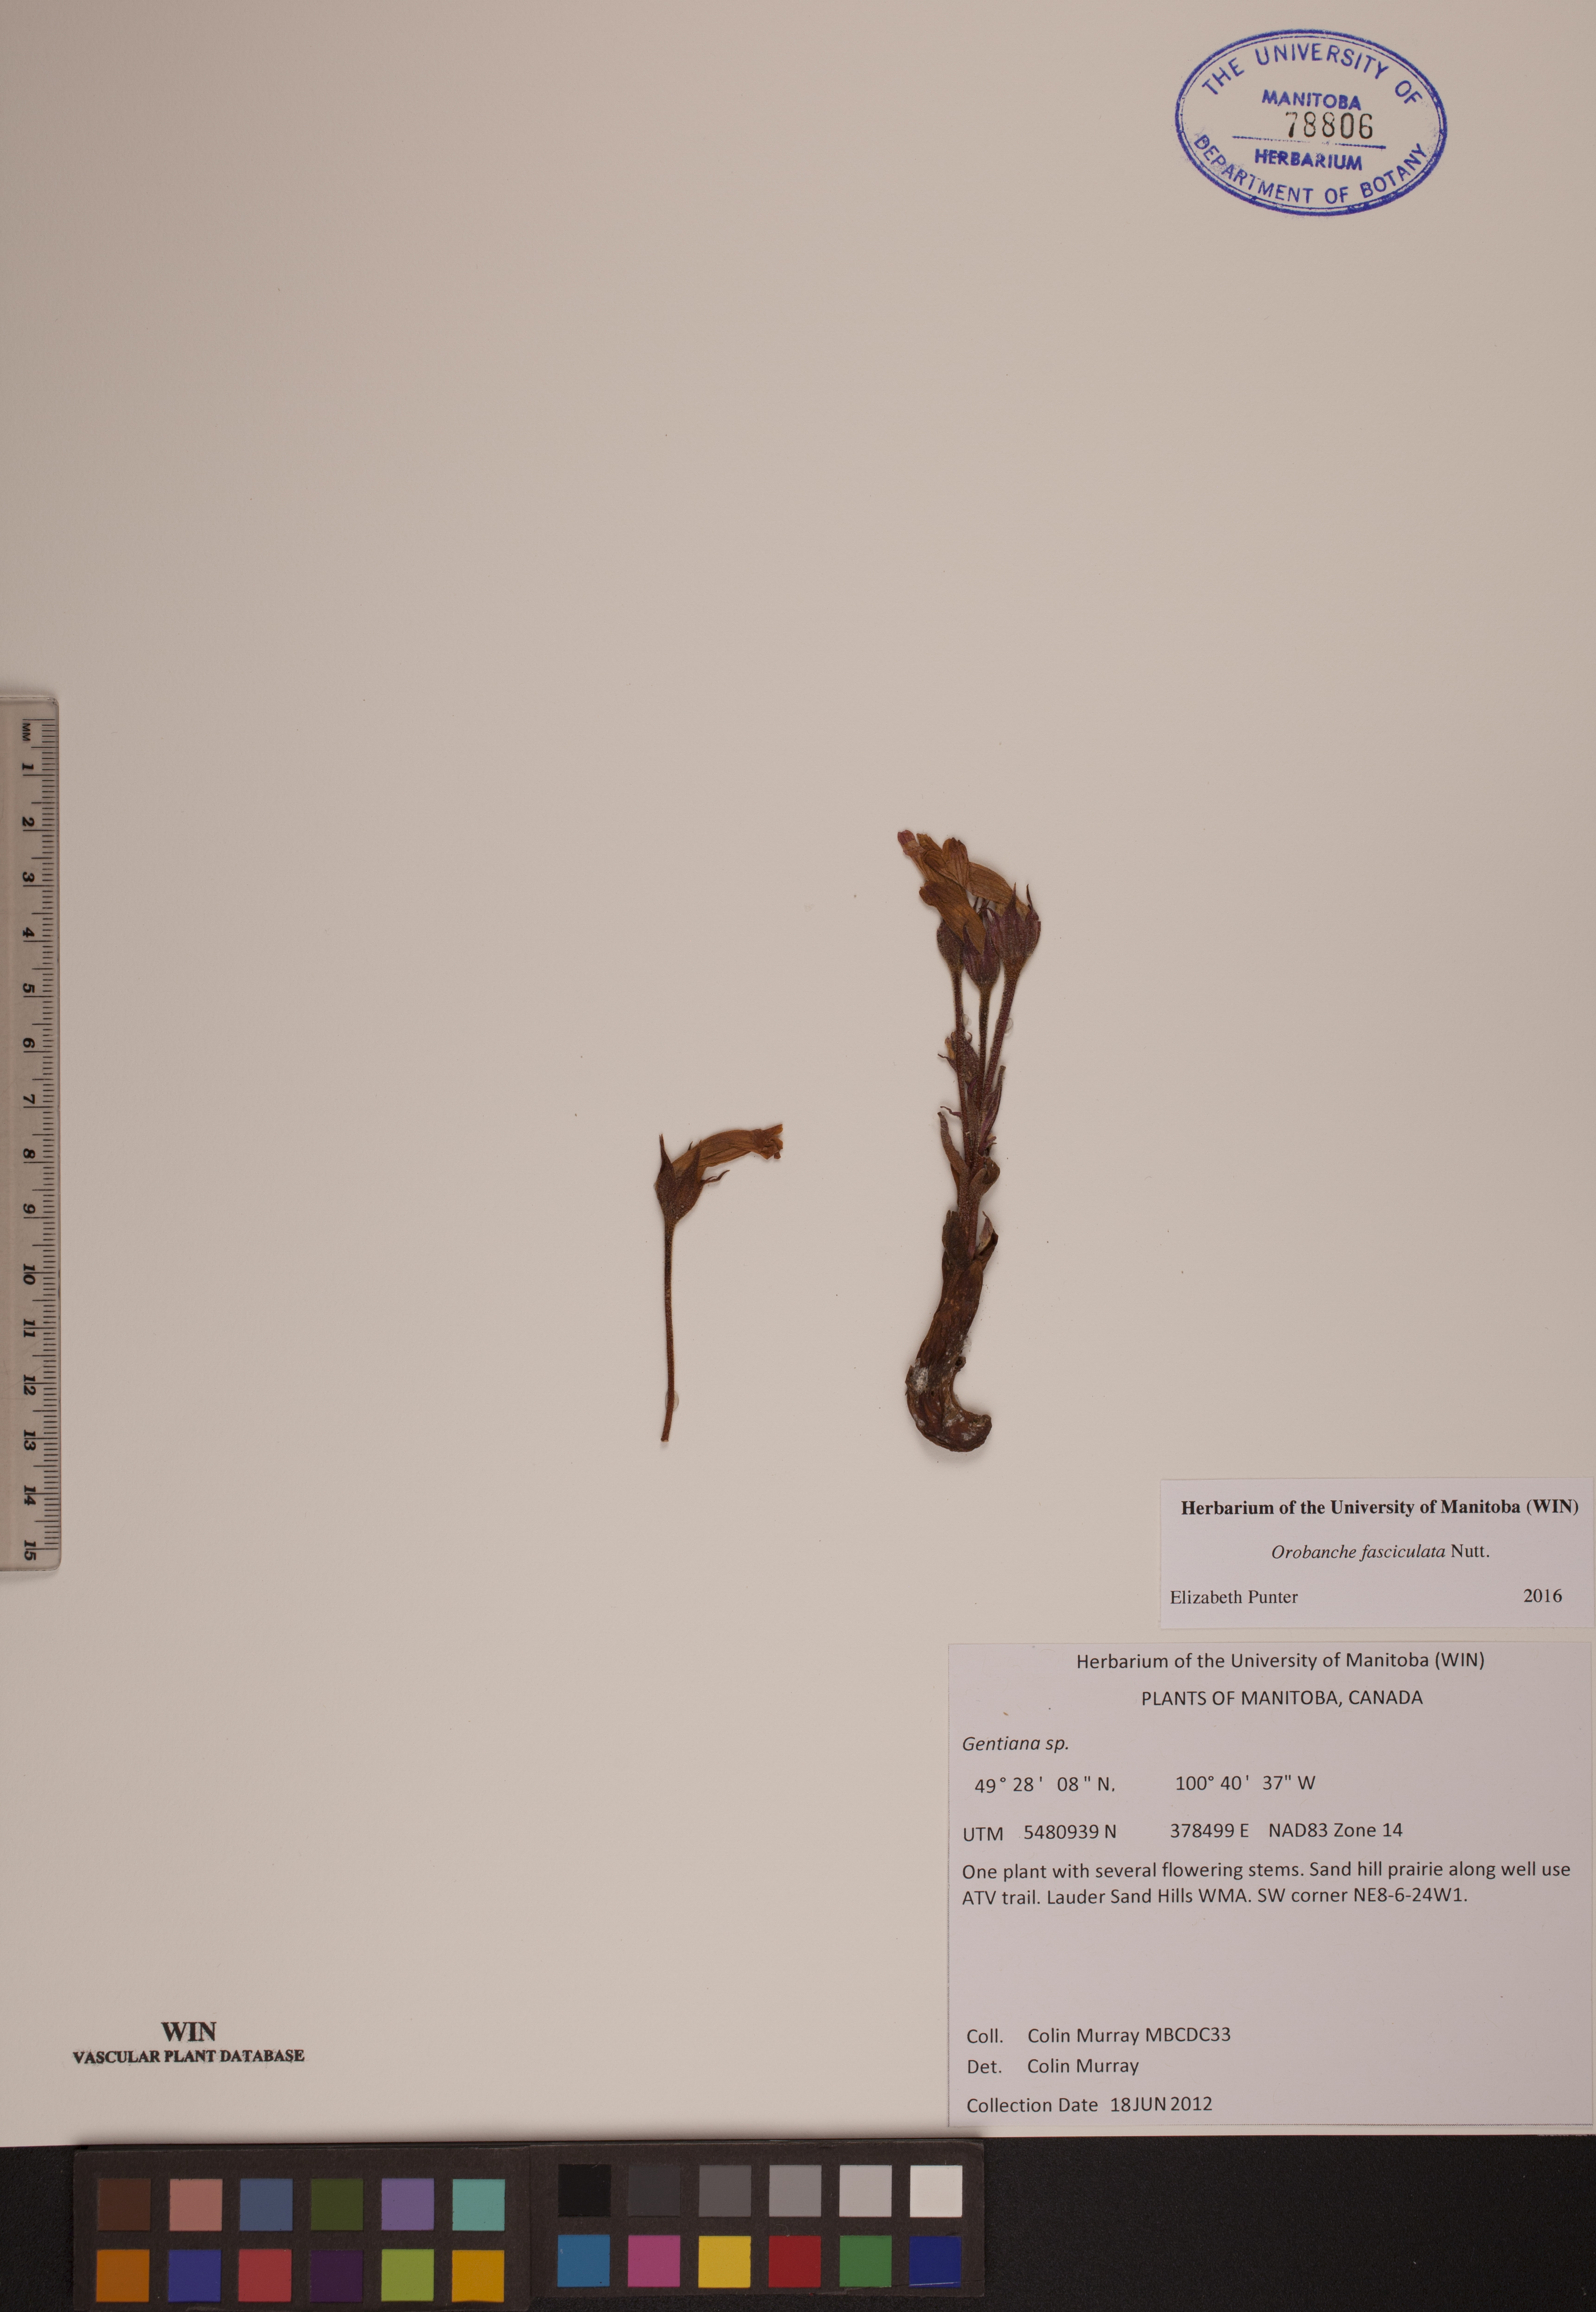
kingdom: Plantae
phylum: Tracheophyta
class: Magnoliopsida
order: Lamiales
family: Orobanchaceae
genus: Aphyllon
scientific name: Aphyllon fasciculatum
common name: Clustered broomrape
